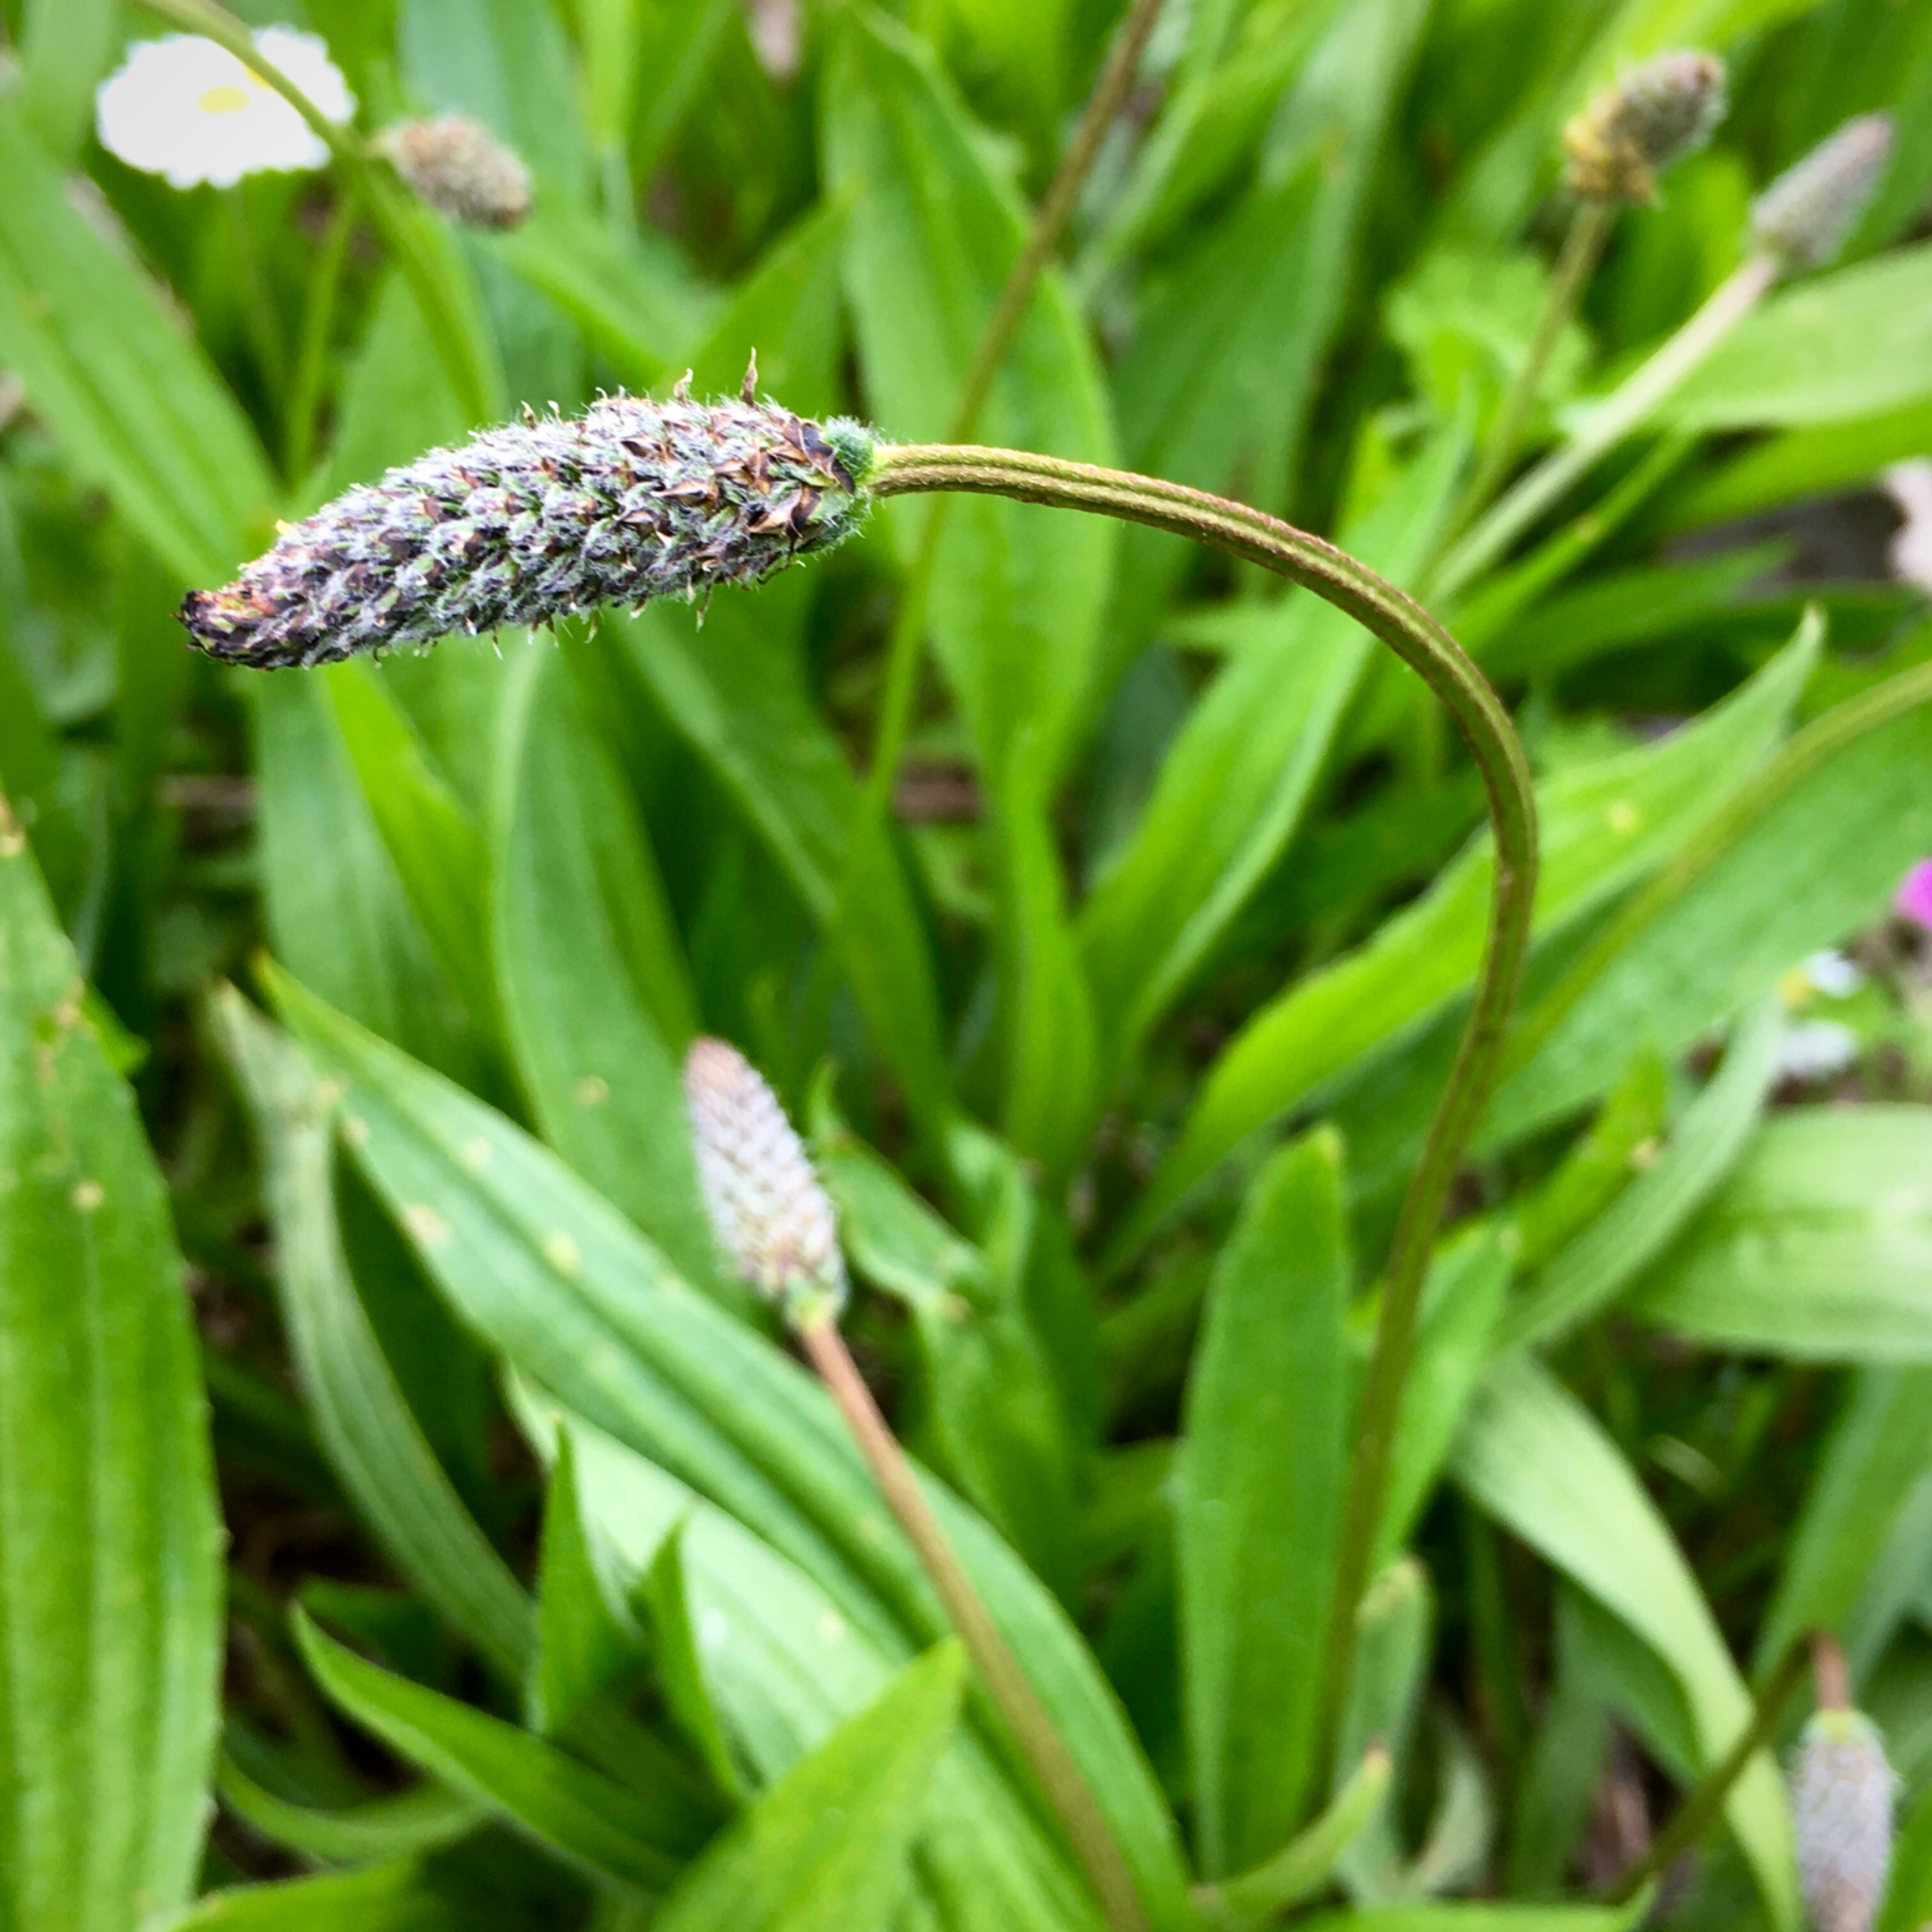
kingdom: Plantae
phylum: Tracheophyta
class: Magnoliopsida
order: Lamiales
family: Plantaginaceae
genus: Plantago
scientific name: Plantago lanceolata
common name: Lancet-vejbred
